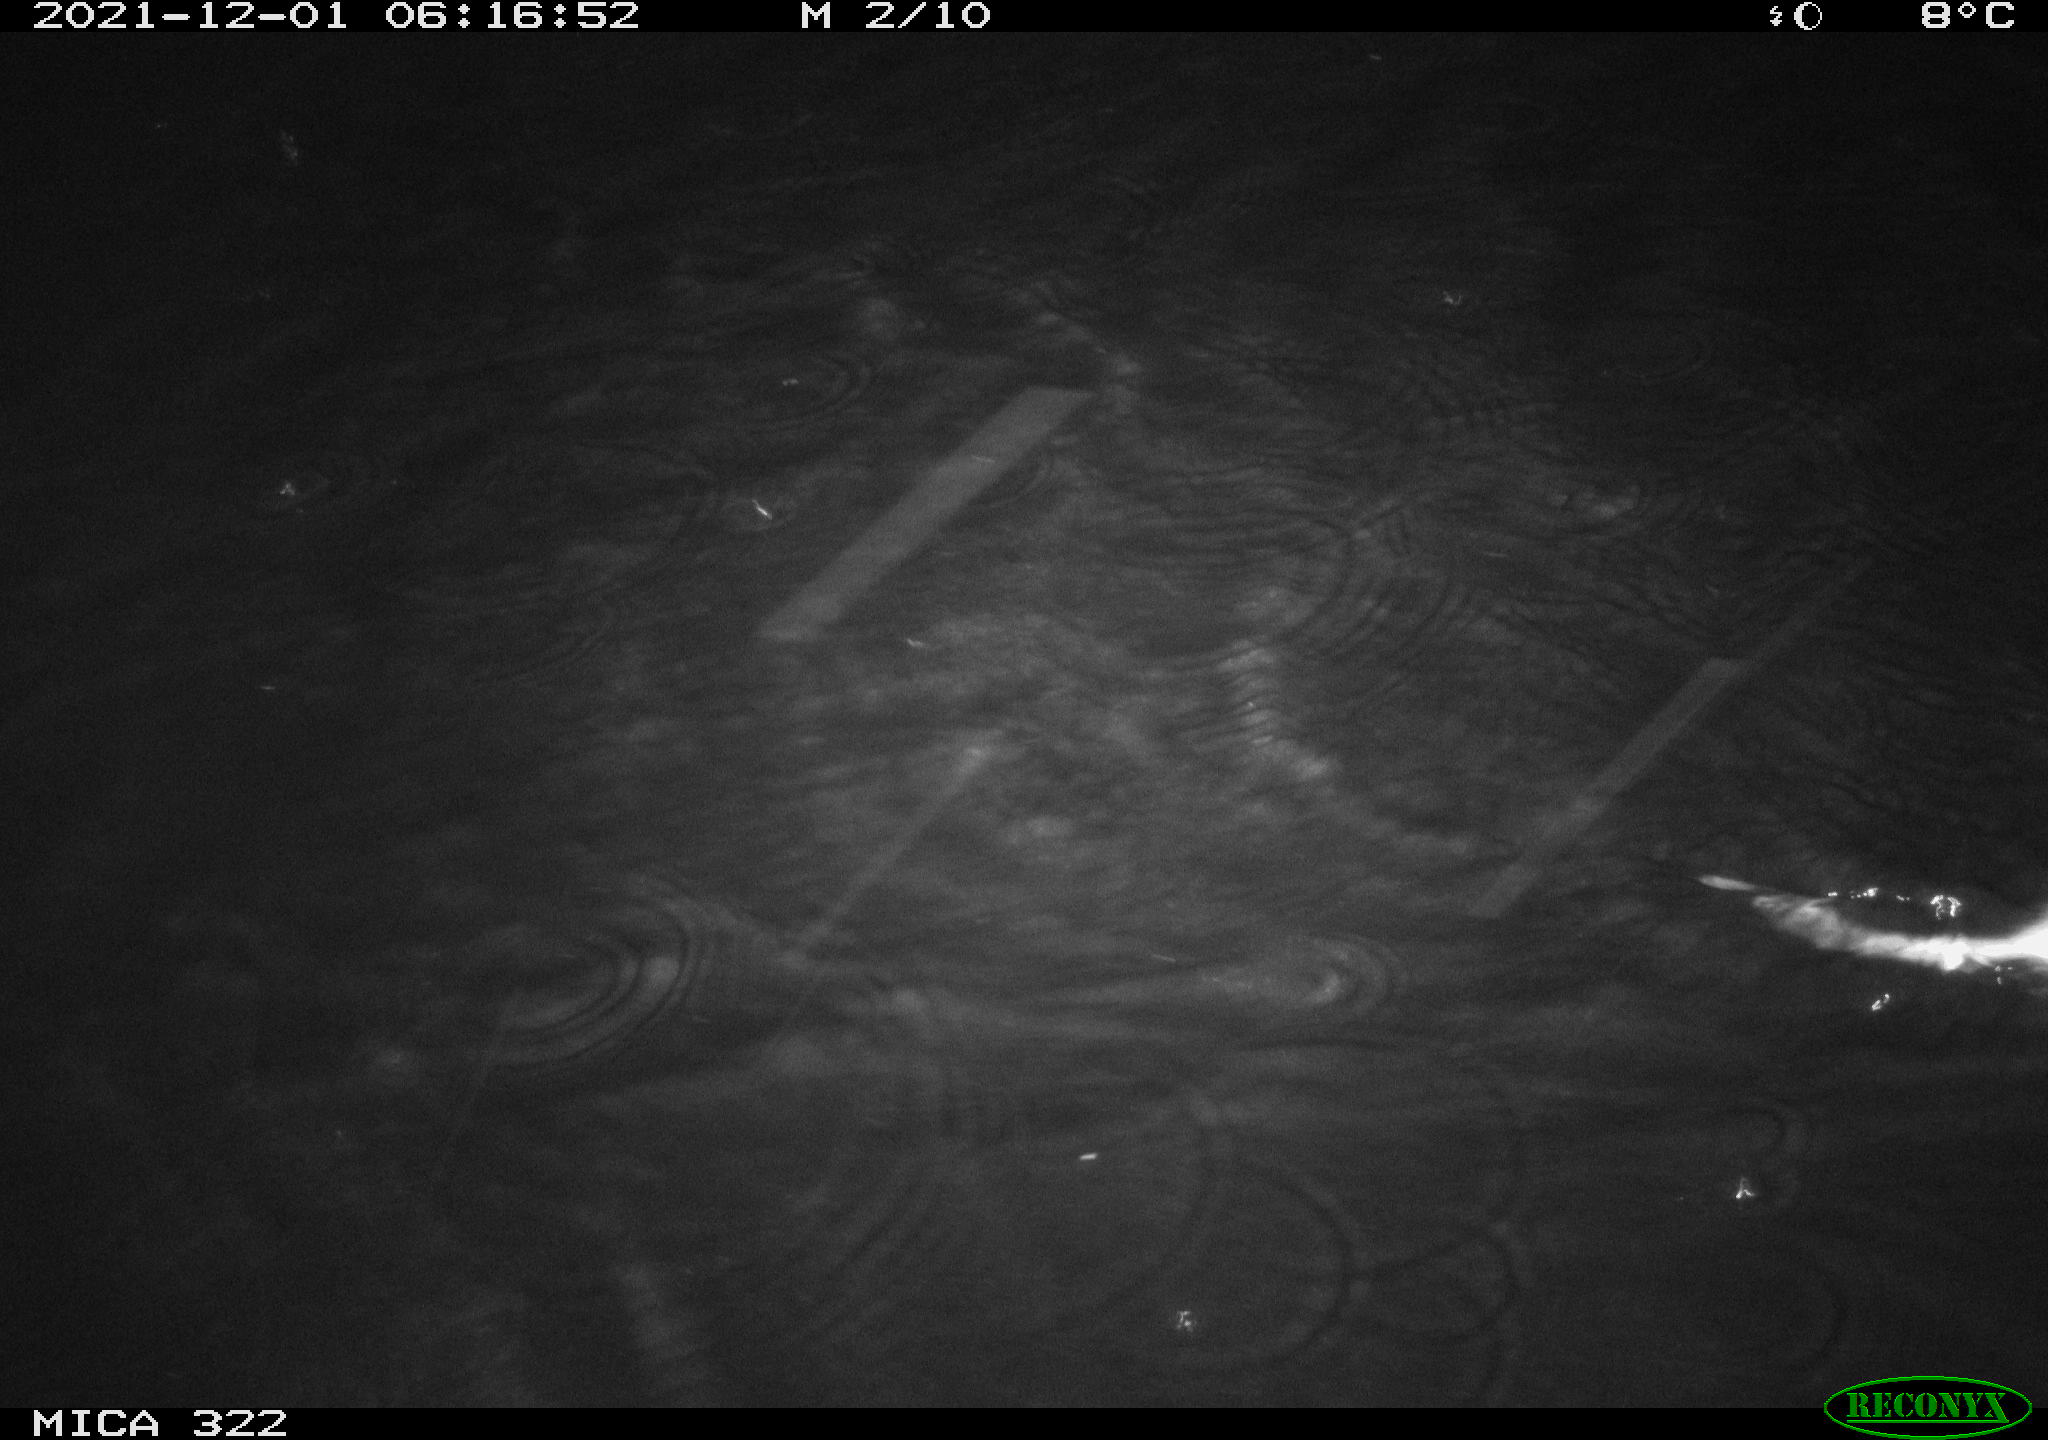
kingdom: Animalia
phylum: Chordata
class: Mammalia
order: Rodentia
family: Muridae
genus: Rattus
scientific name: Rattus norvegicus
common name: Brown rat
